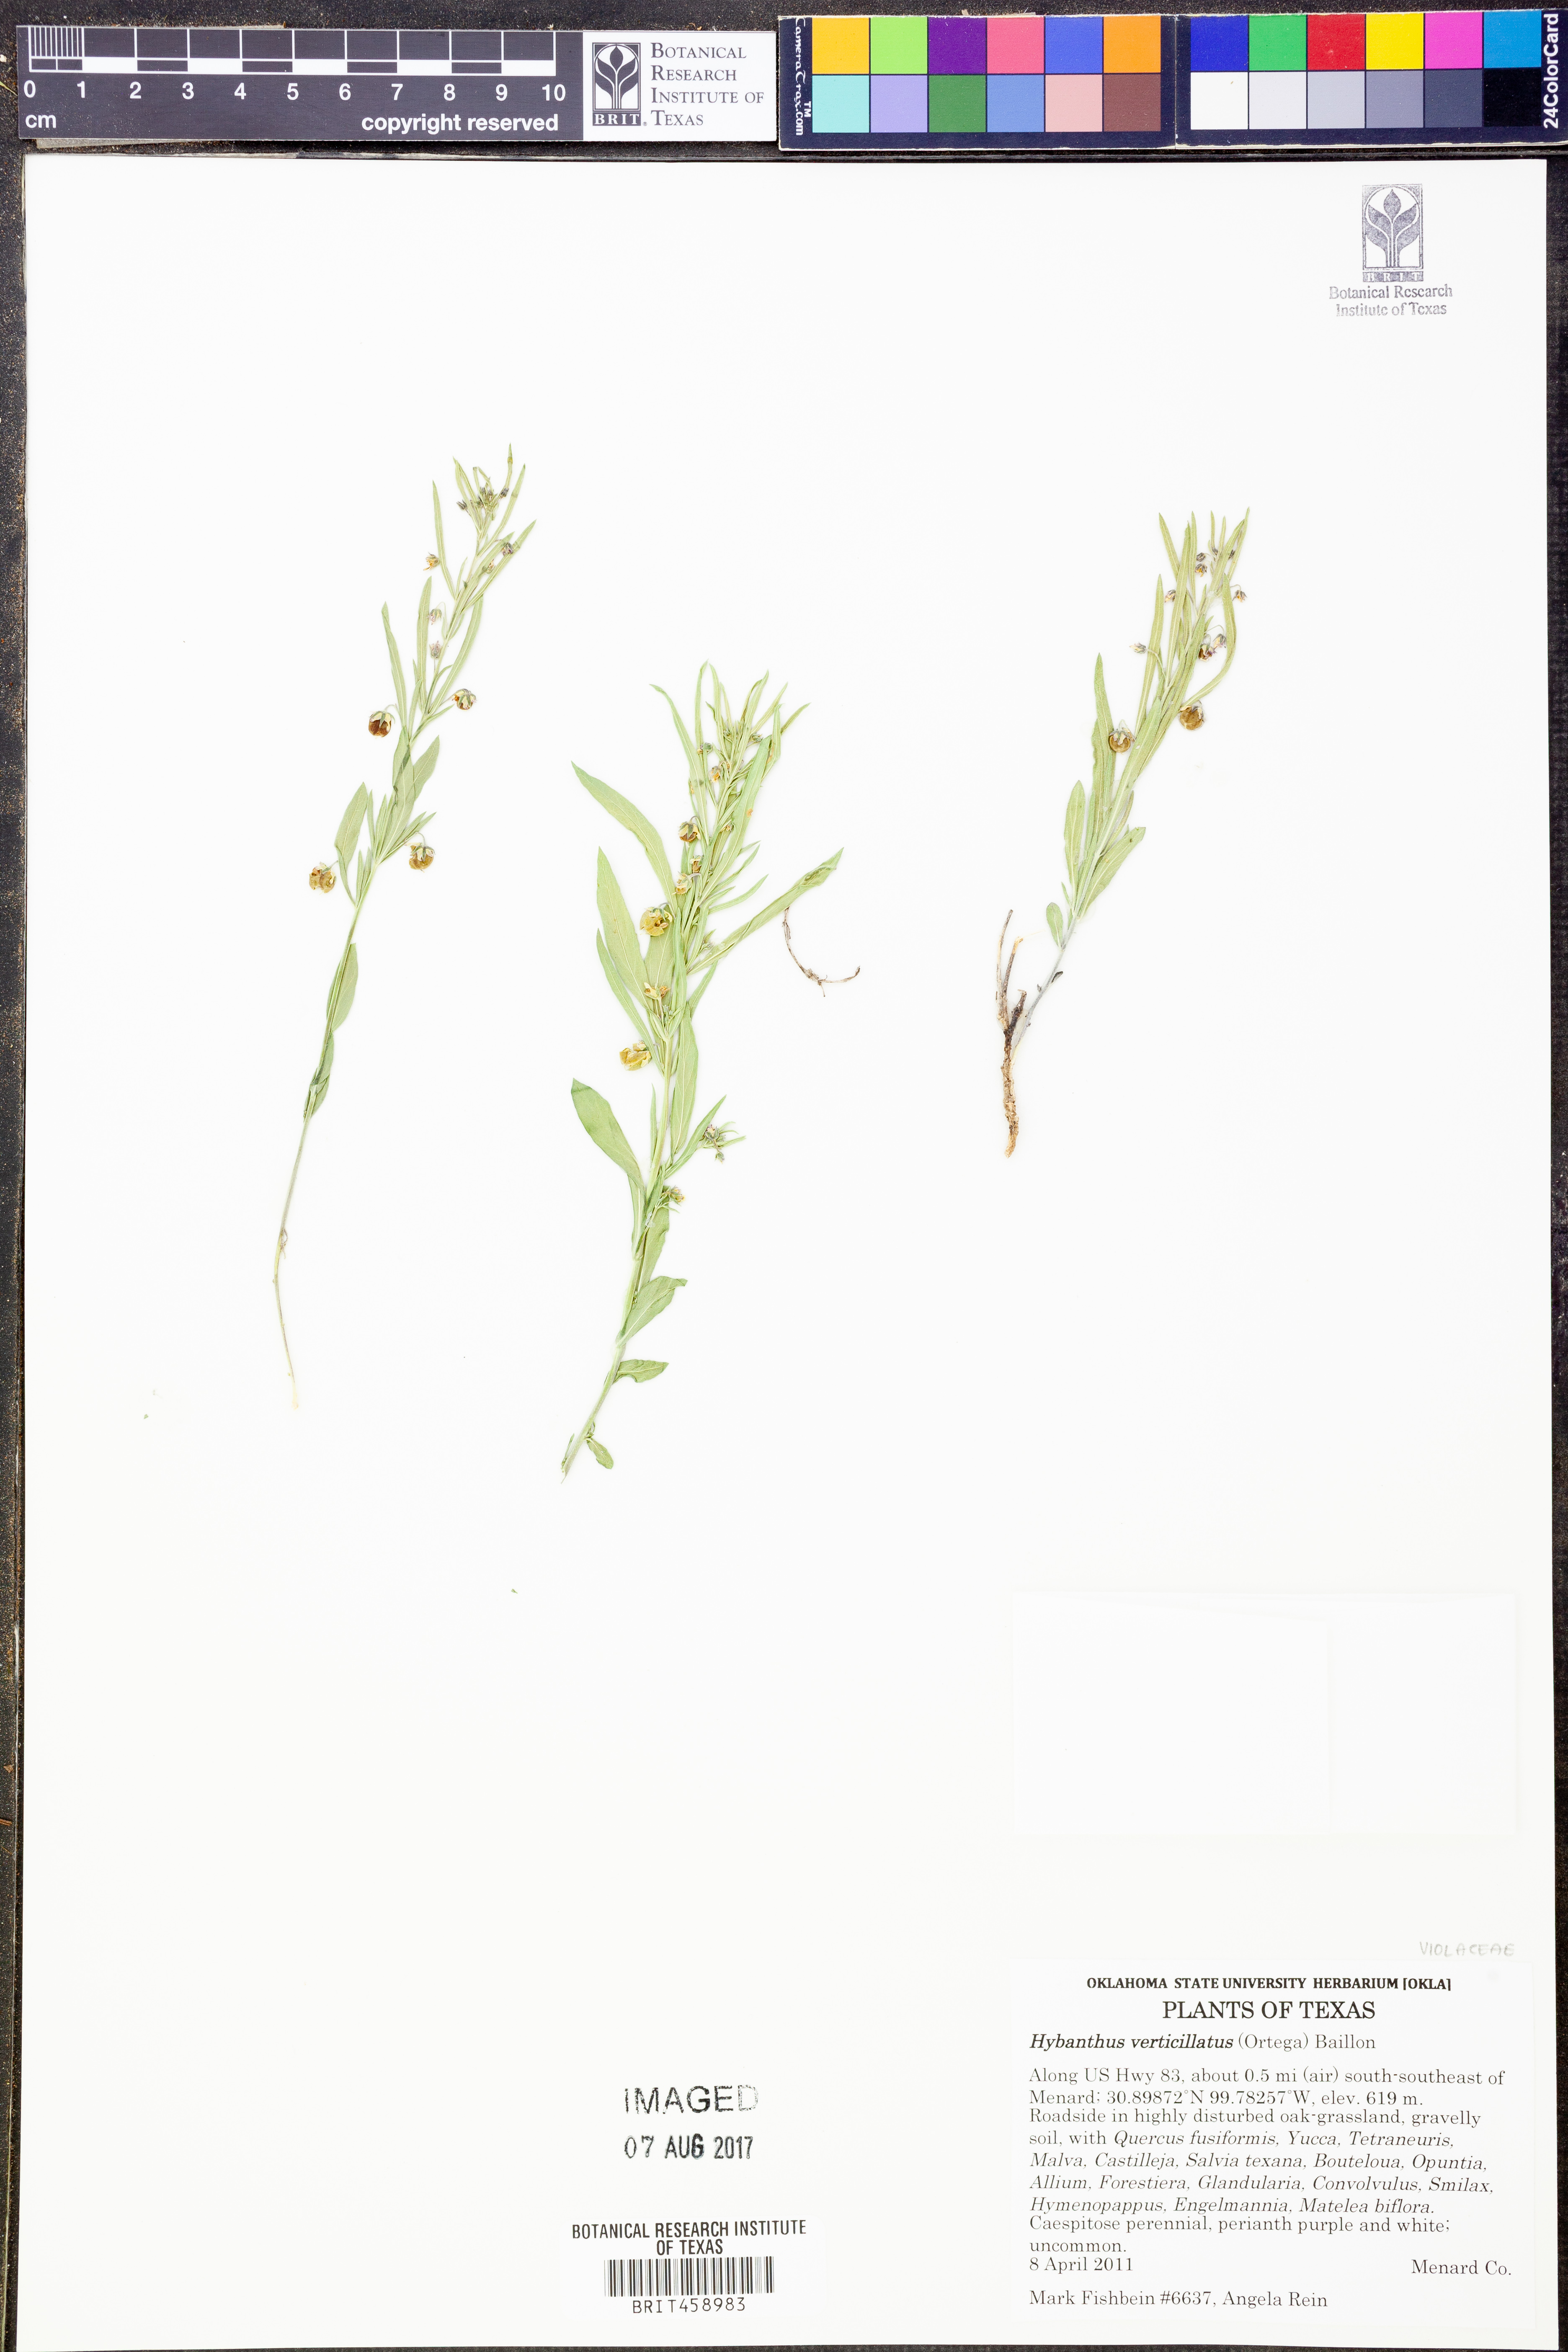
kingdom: Plantae
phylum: Tracheophyta
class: Magnoliopsida
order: Malpighiales
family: Violaceae
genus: Pombalia
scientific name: Pombalia verticillata
